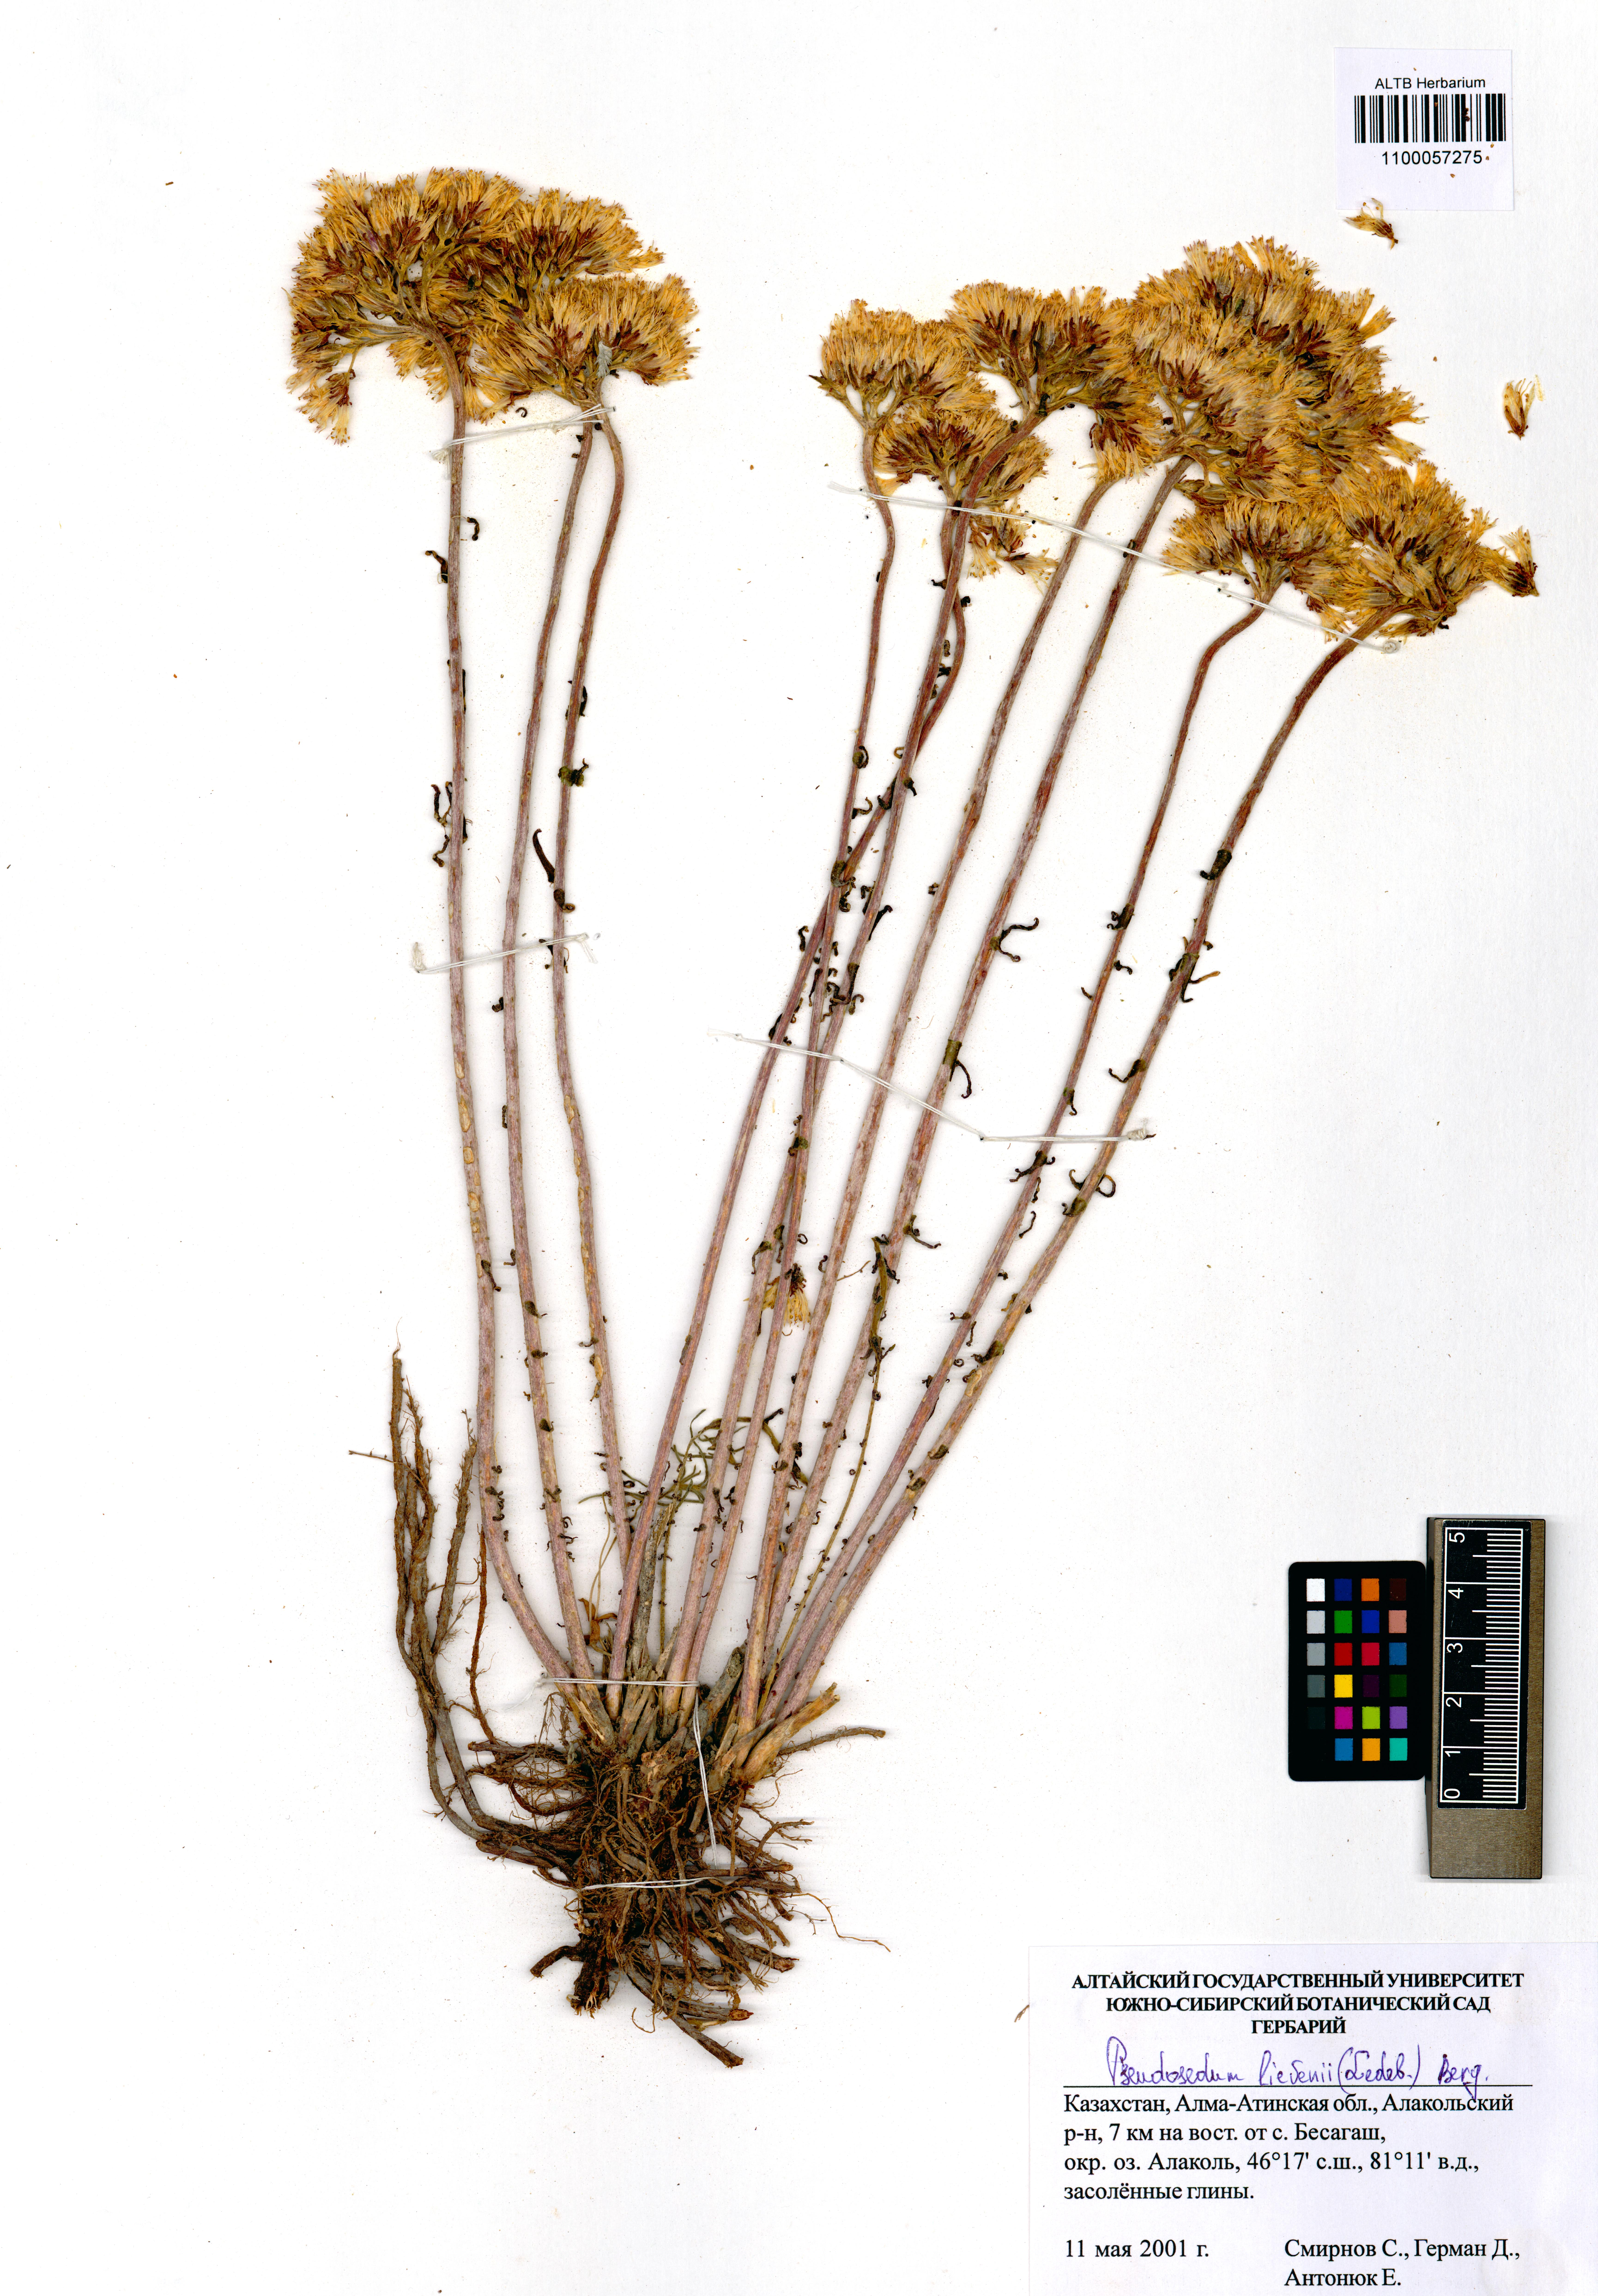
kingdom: Plantae
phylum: Tracheophyta
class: Magnoliopsida
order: Saxifragales
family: Crassulaceae
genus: Pseudosedum
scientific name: Pseudosedum lievenii
